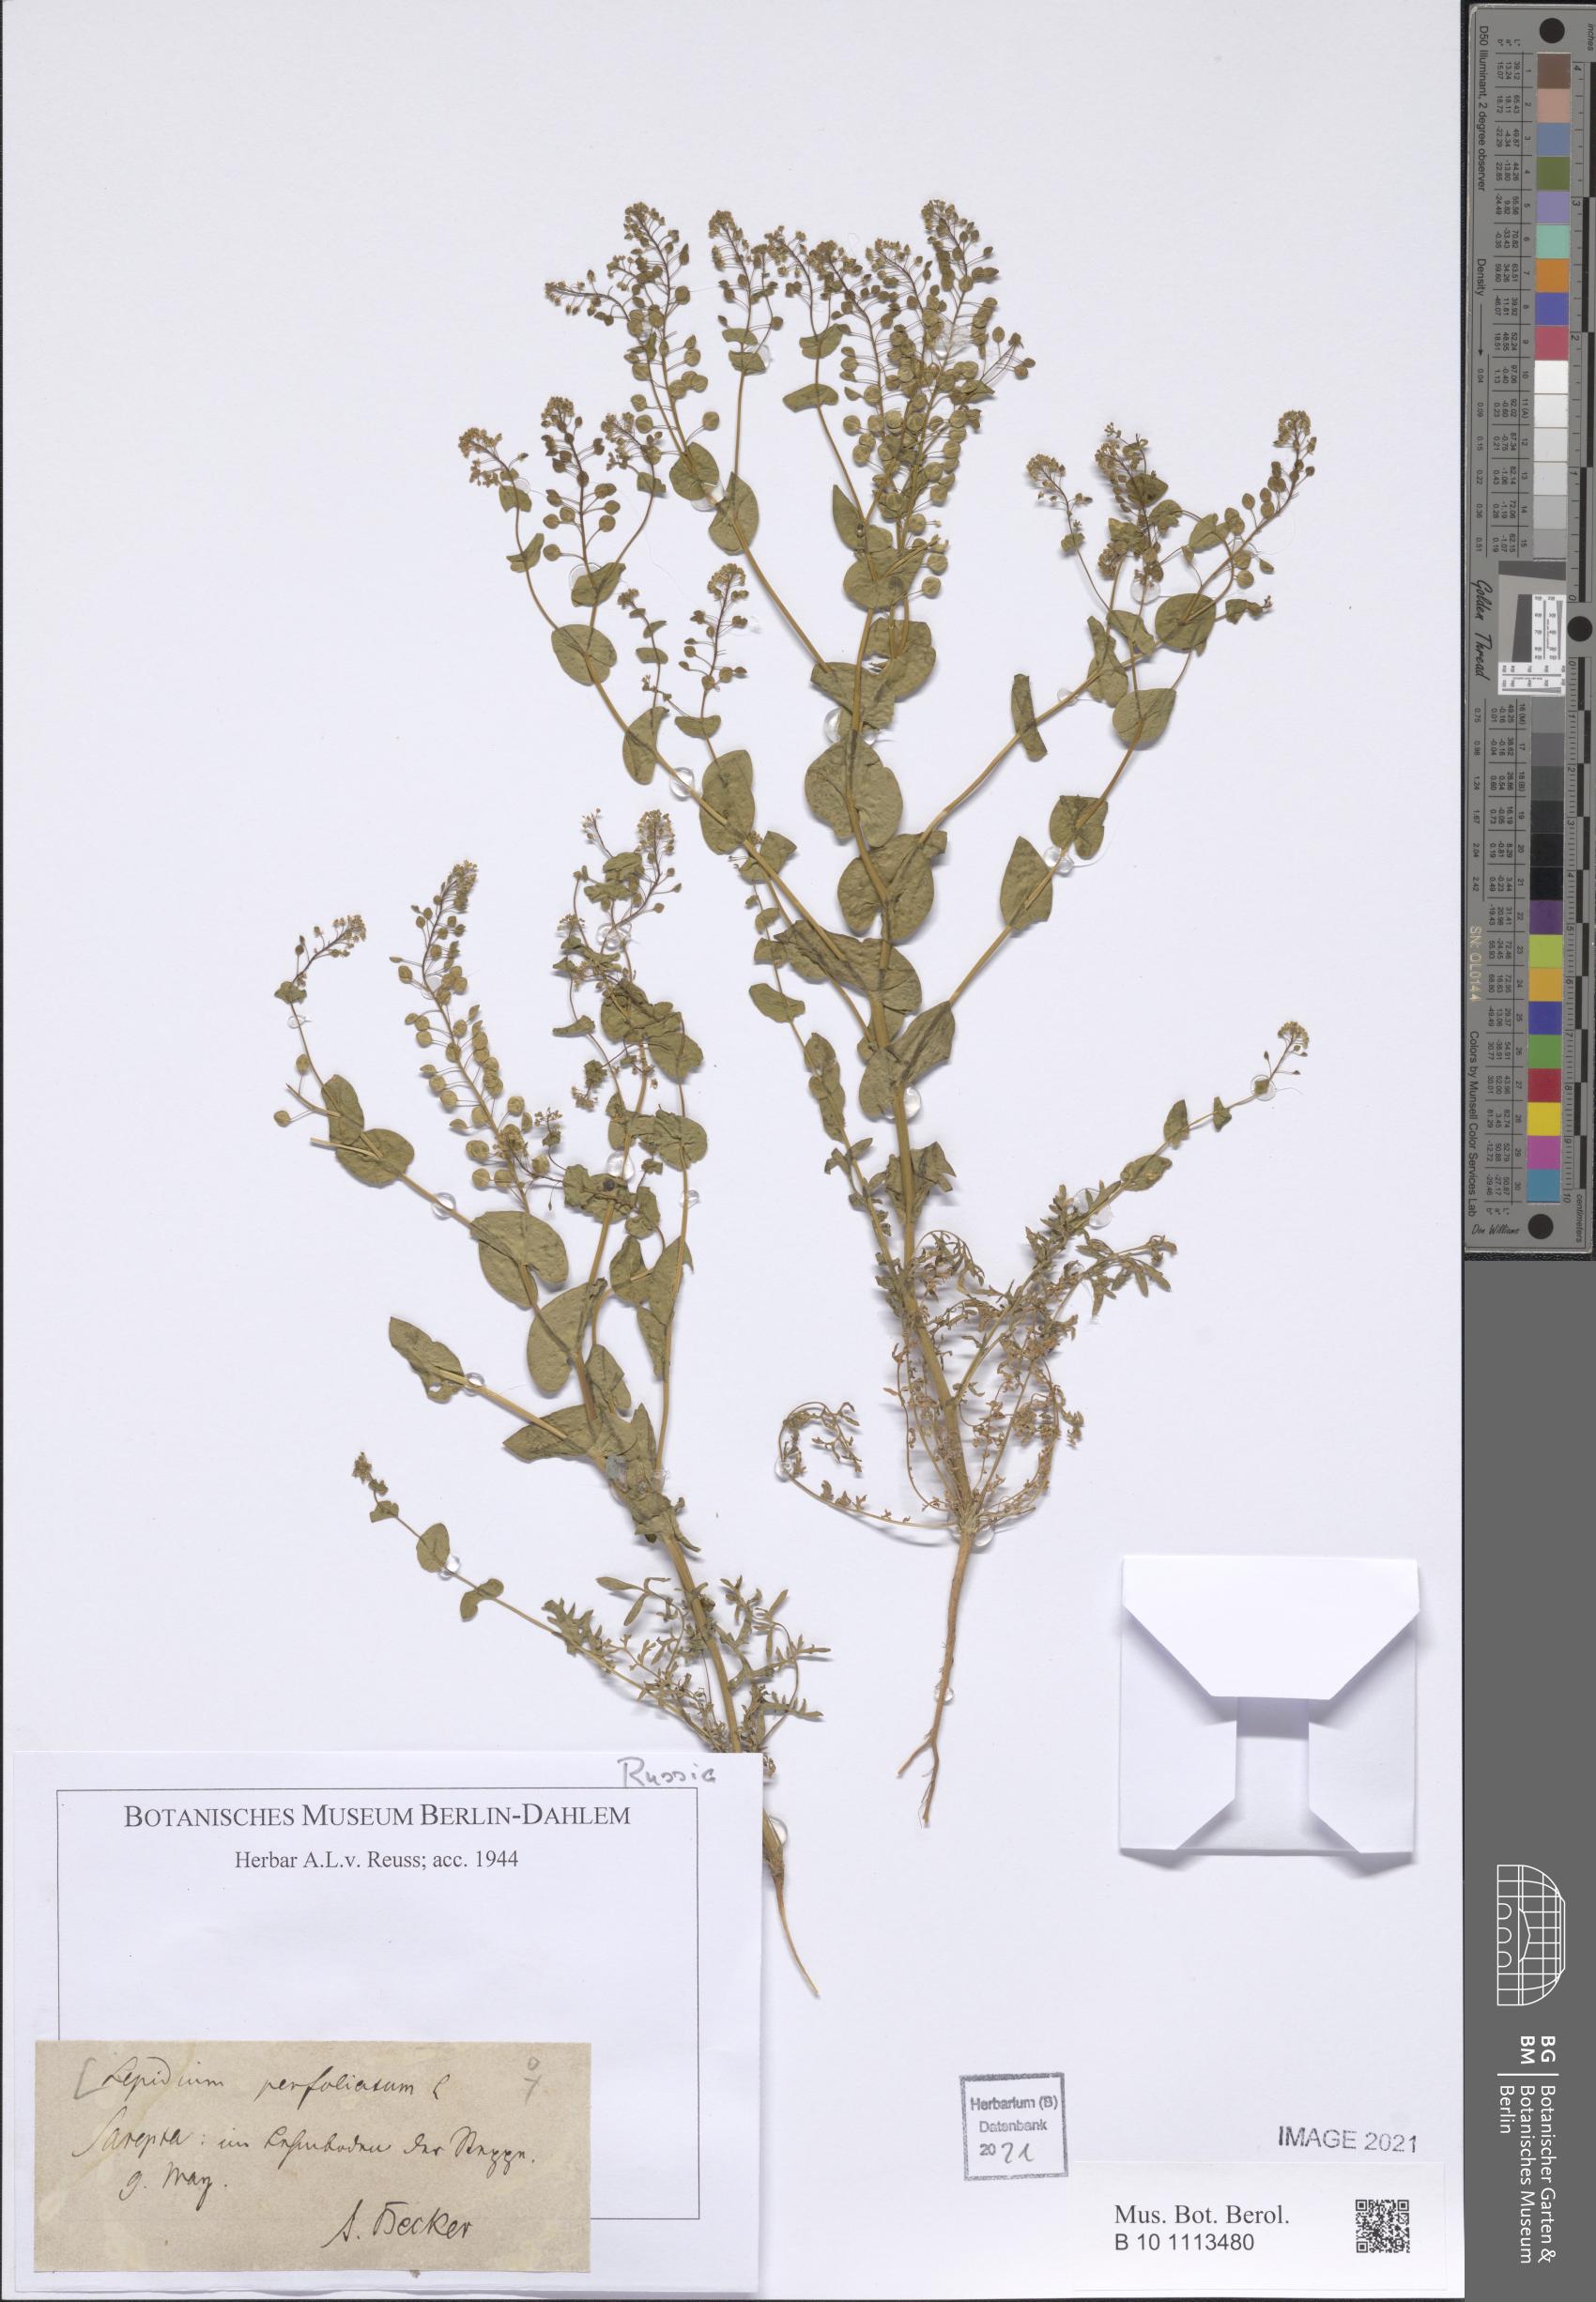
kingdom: Plantae
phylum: Tracheophyta
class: Magnoliopsida
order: Brassicales
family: Brassicaceae
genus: Lepidium
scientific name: Lepidium perfoliatum
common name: Perfoliate pepperwort
